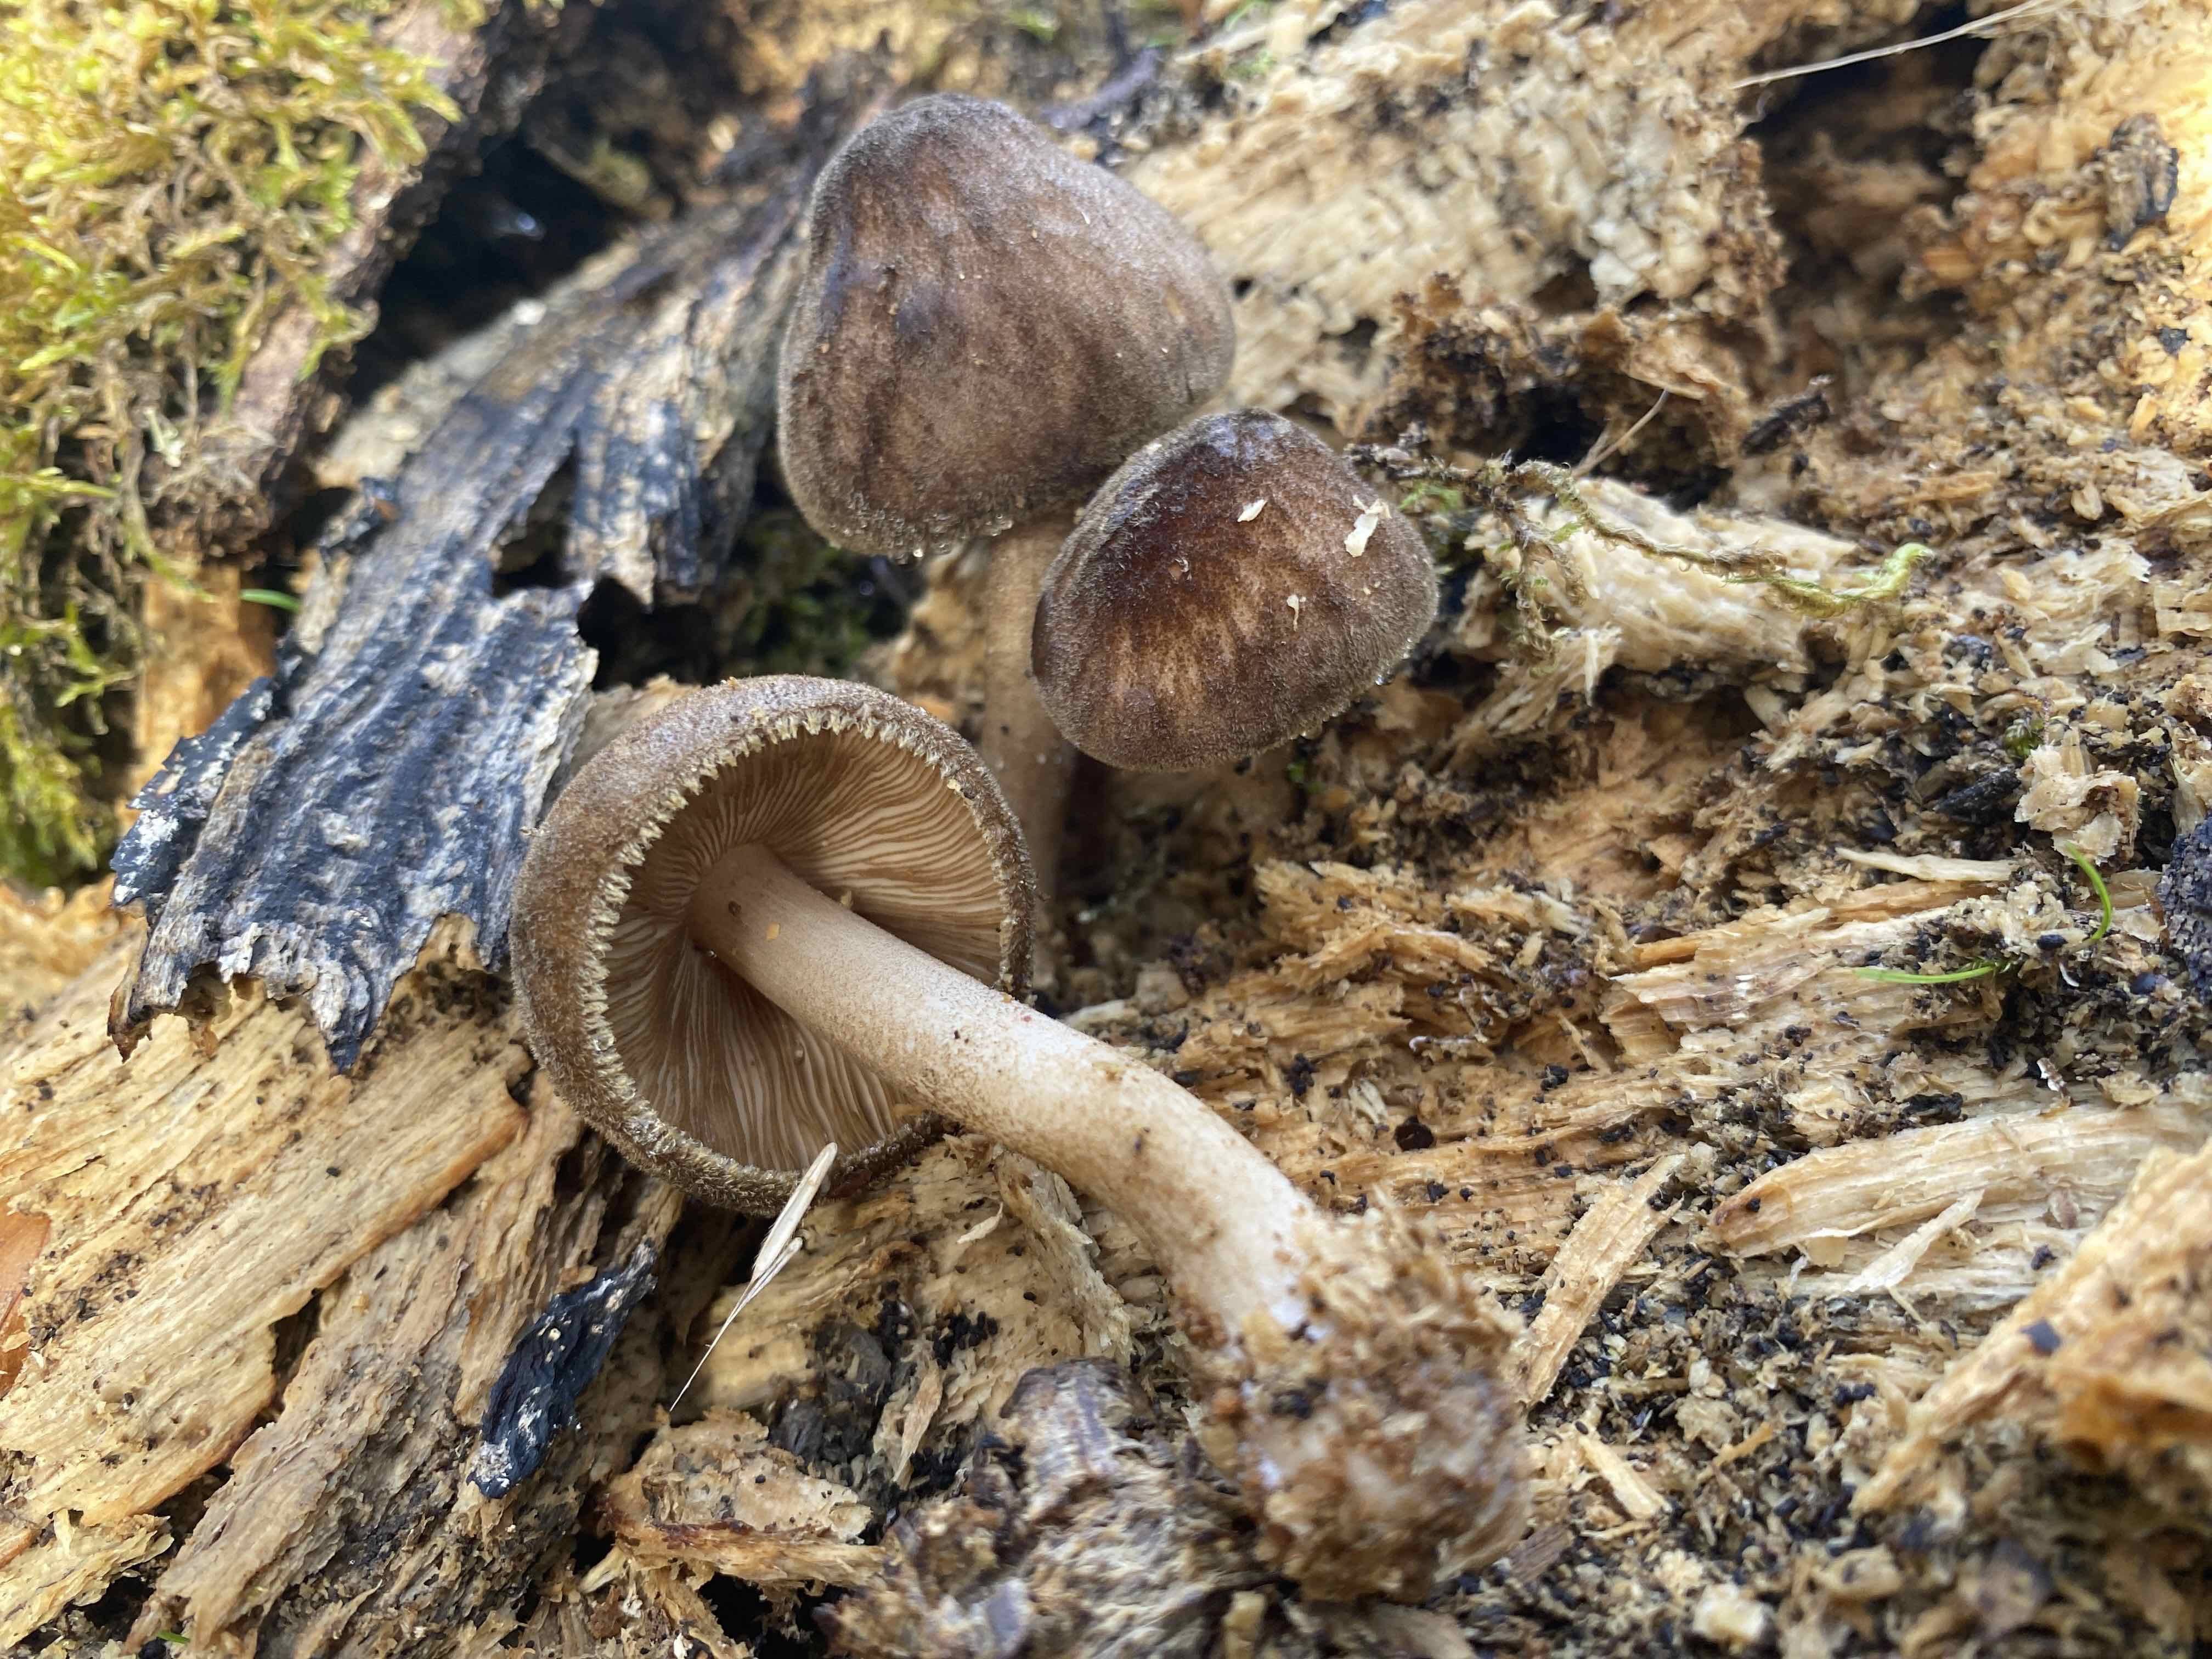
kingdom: Fungi
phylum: Basidiomycota
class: Agaricomycetes
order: Agaricales
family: Pluteaceae
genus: Pluteus
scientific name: Pluteus umbrosus
